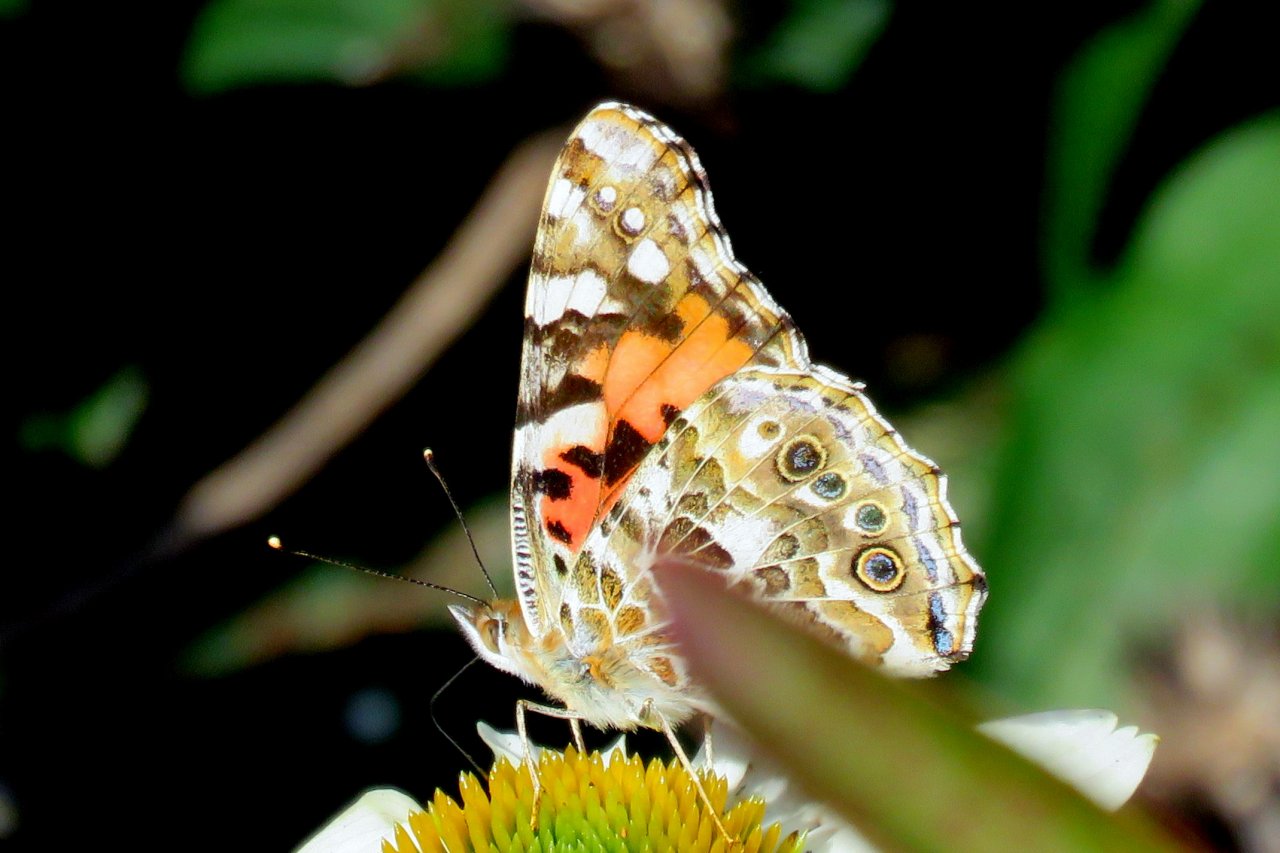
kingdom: Animalia
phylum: Arthropoda
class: Insecta
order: Lepidoptera
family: Nymphalidae
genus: Vanessa
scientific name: Vanessa cardui
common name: Painted Lady
